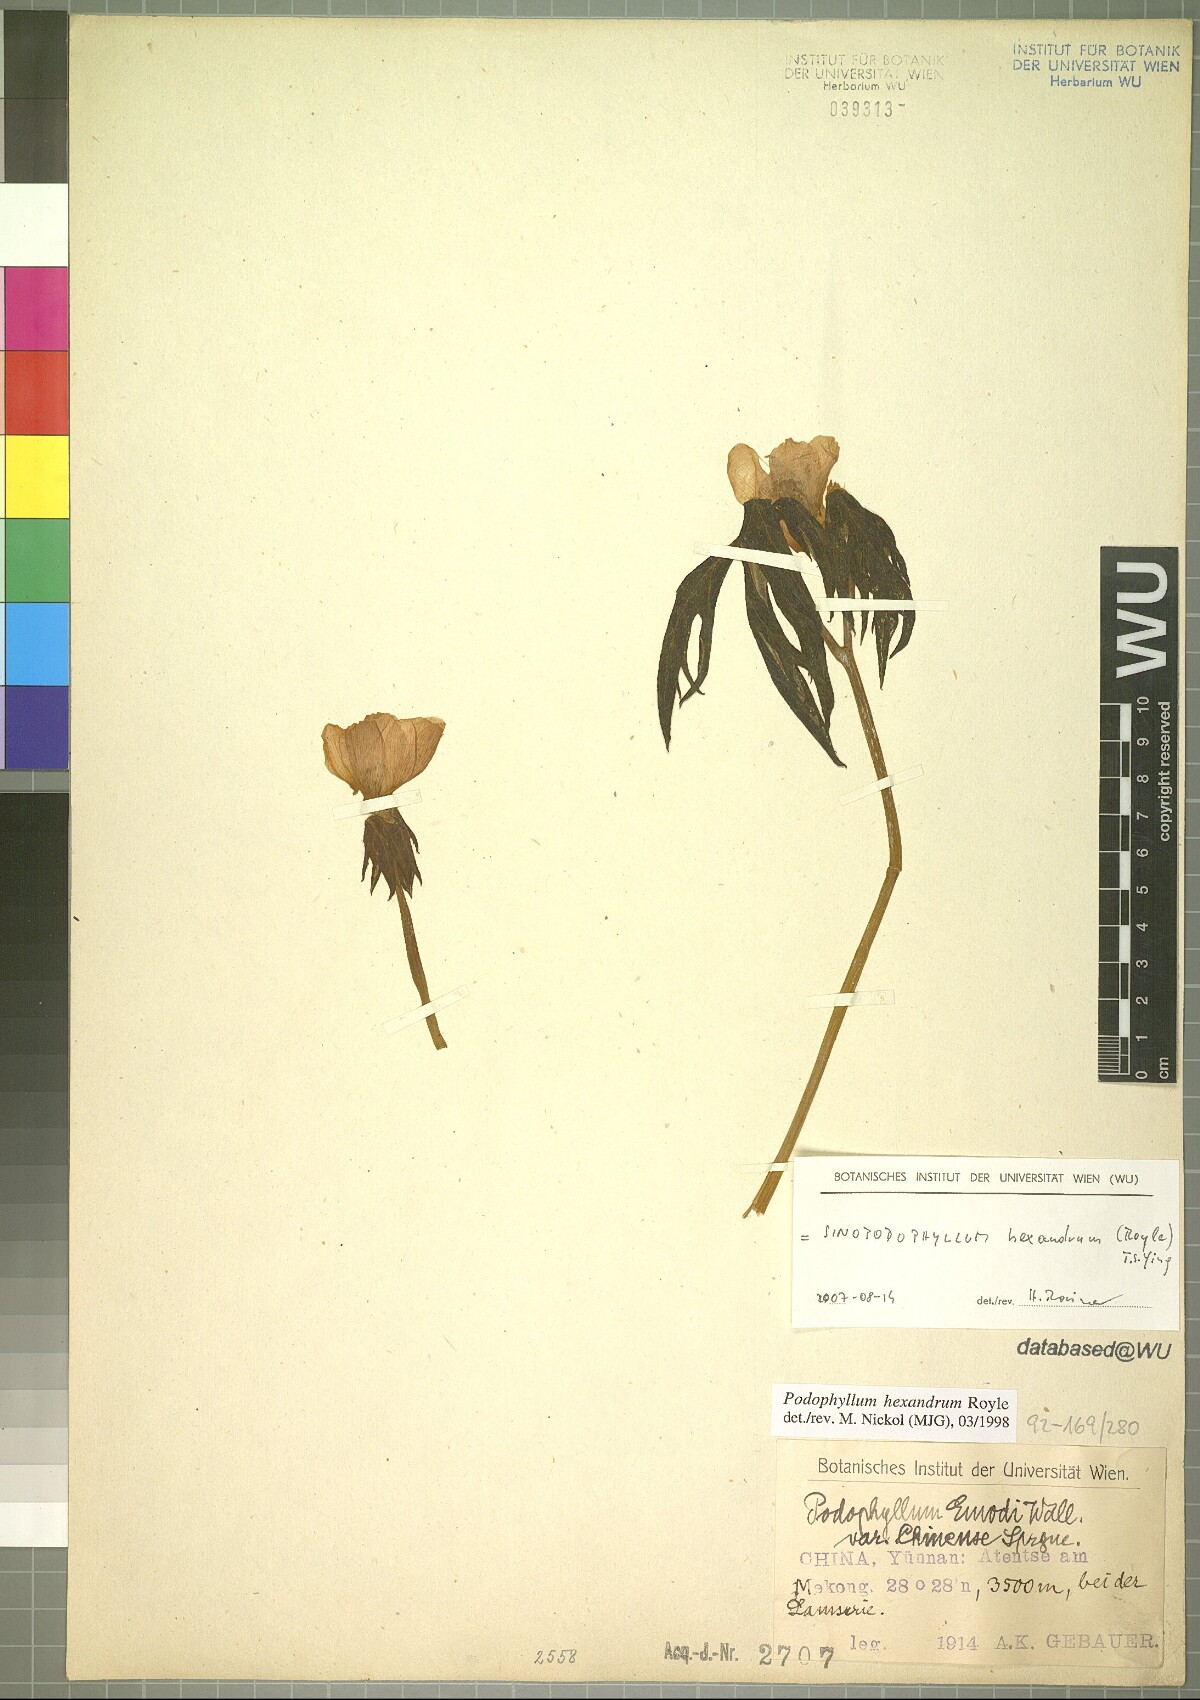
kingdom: Plantae
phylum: Tracheophyta
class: Magnoliopsida
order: Ranunculales
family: Berberidaceae
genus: Sinopodophyllum
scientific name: Sinopodophyllum hexandrum
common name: Himalayan may-apple
